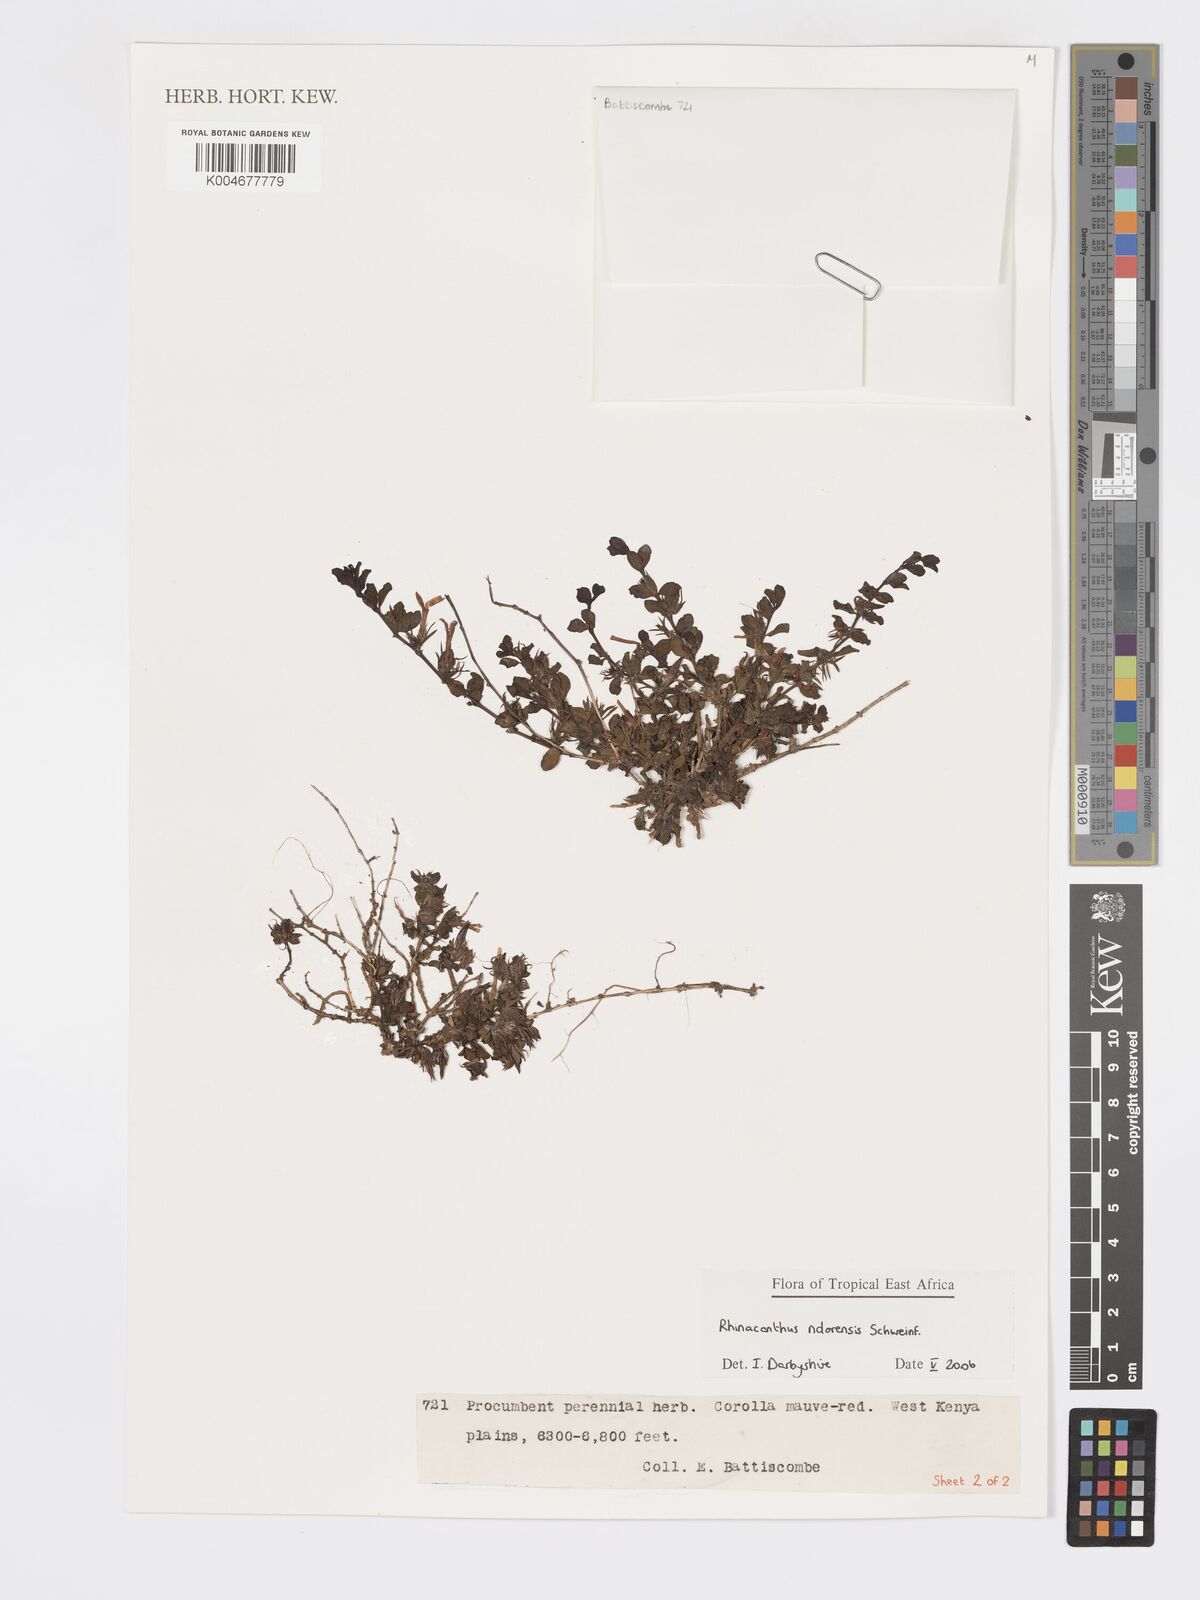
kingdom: Plantae
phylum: Tracheophyta
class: Magnoliopsida
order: Lamiales
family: Acanthaceae
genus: Kenyacanthus
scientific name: Kenyacanthus ndorensis
